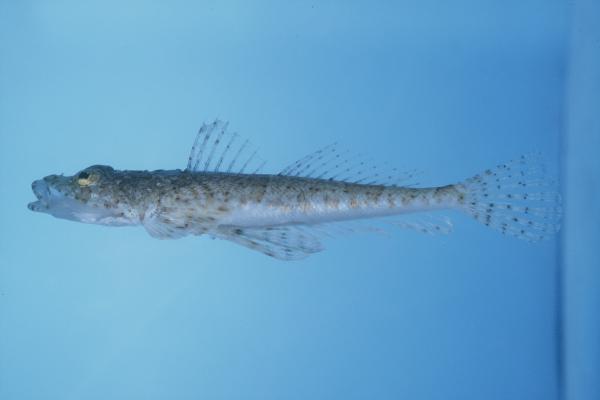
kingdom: Animalia
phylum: Chordata
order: Scorpaeniformes
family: Platycephalidae
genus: Sunagocia
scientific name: Sunagocia arenicola
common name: Broadhead flathead
